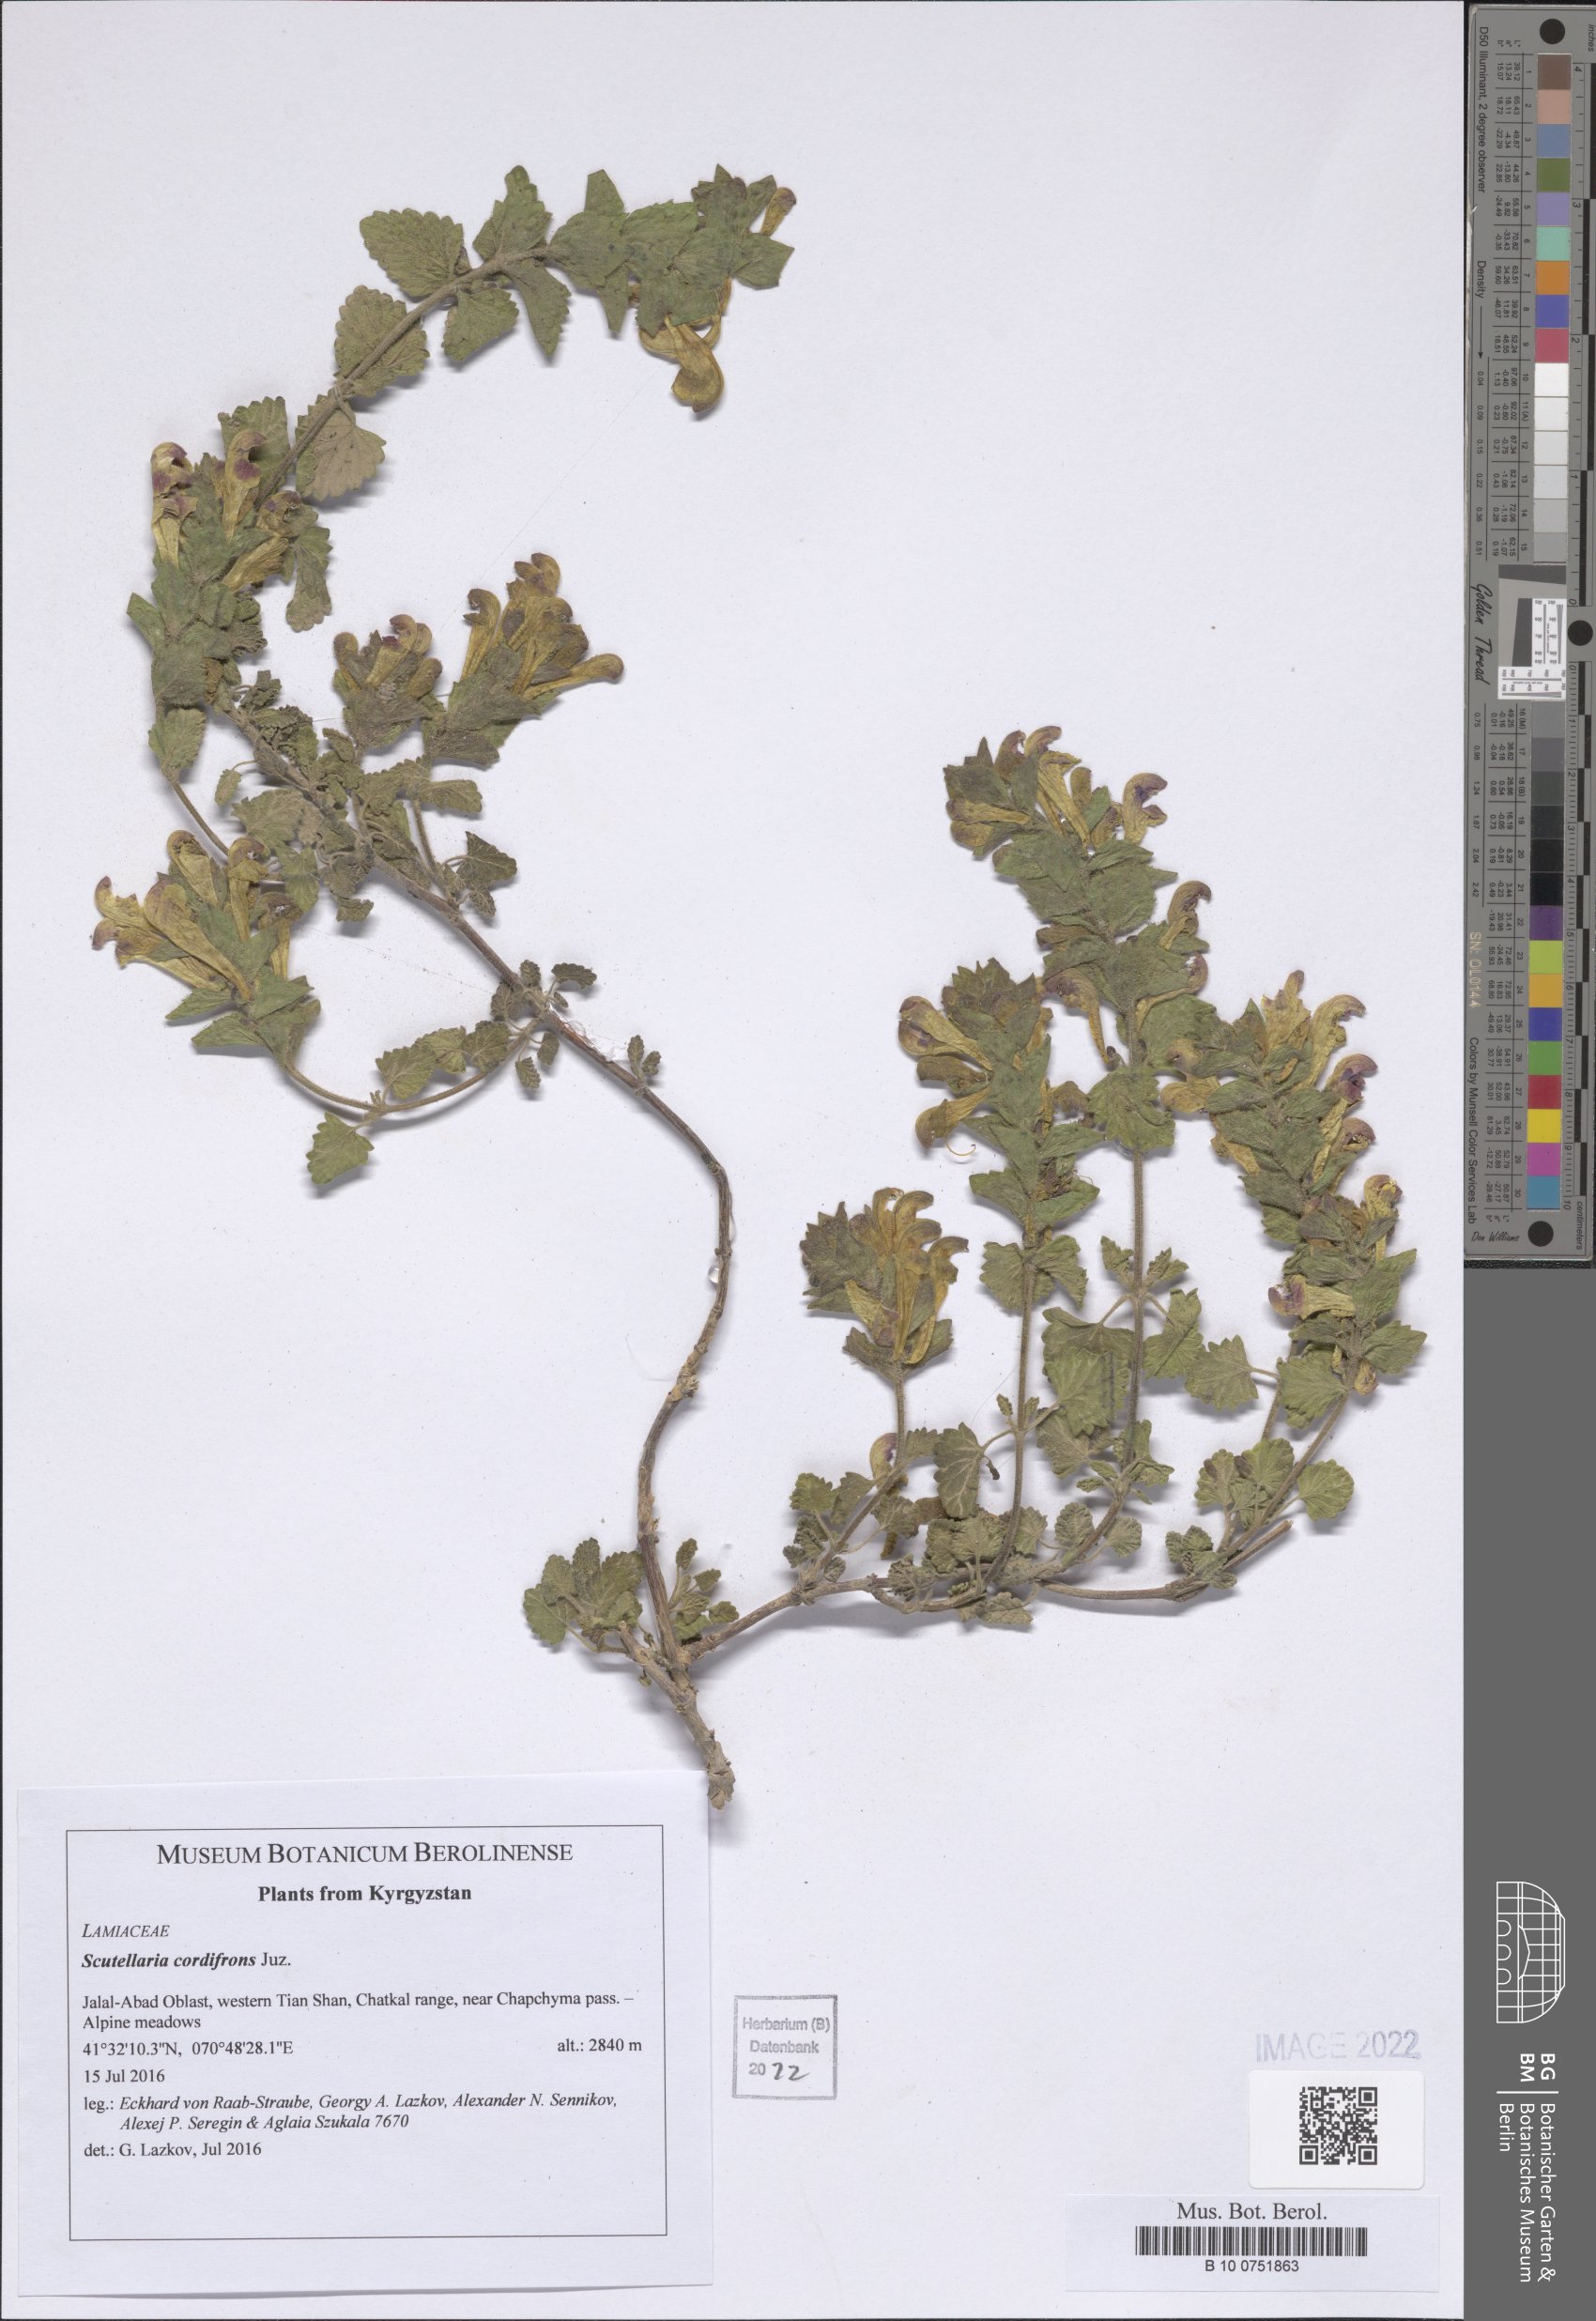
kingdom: Plantae
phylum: Tracheophyta
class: Magnoliopsida
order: Lamiales
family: Lamiaceae
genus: Scutellaria
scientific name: Scutellaria cordifrons
